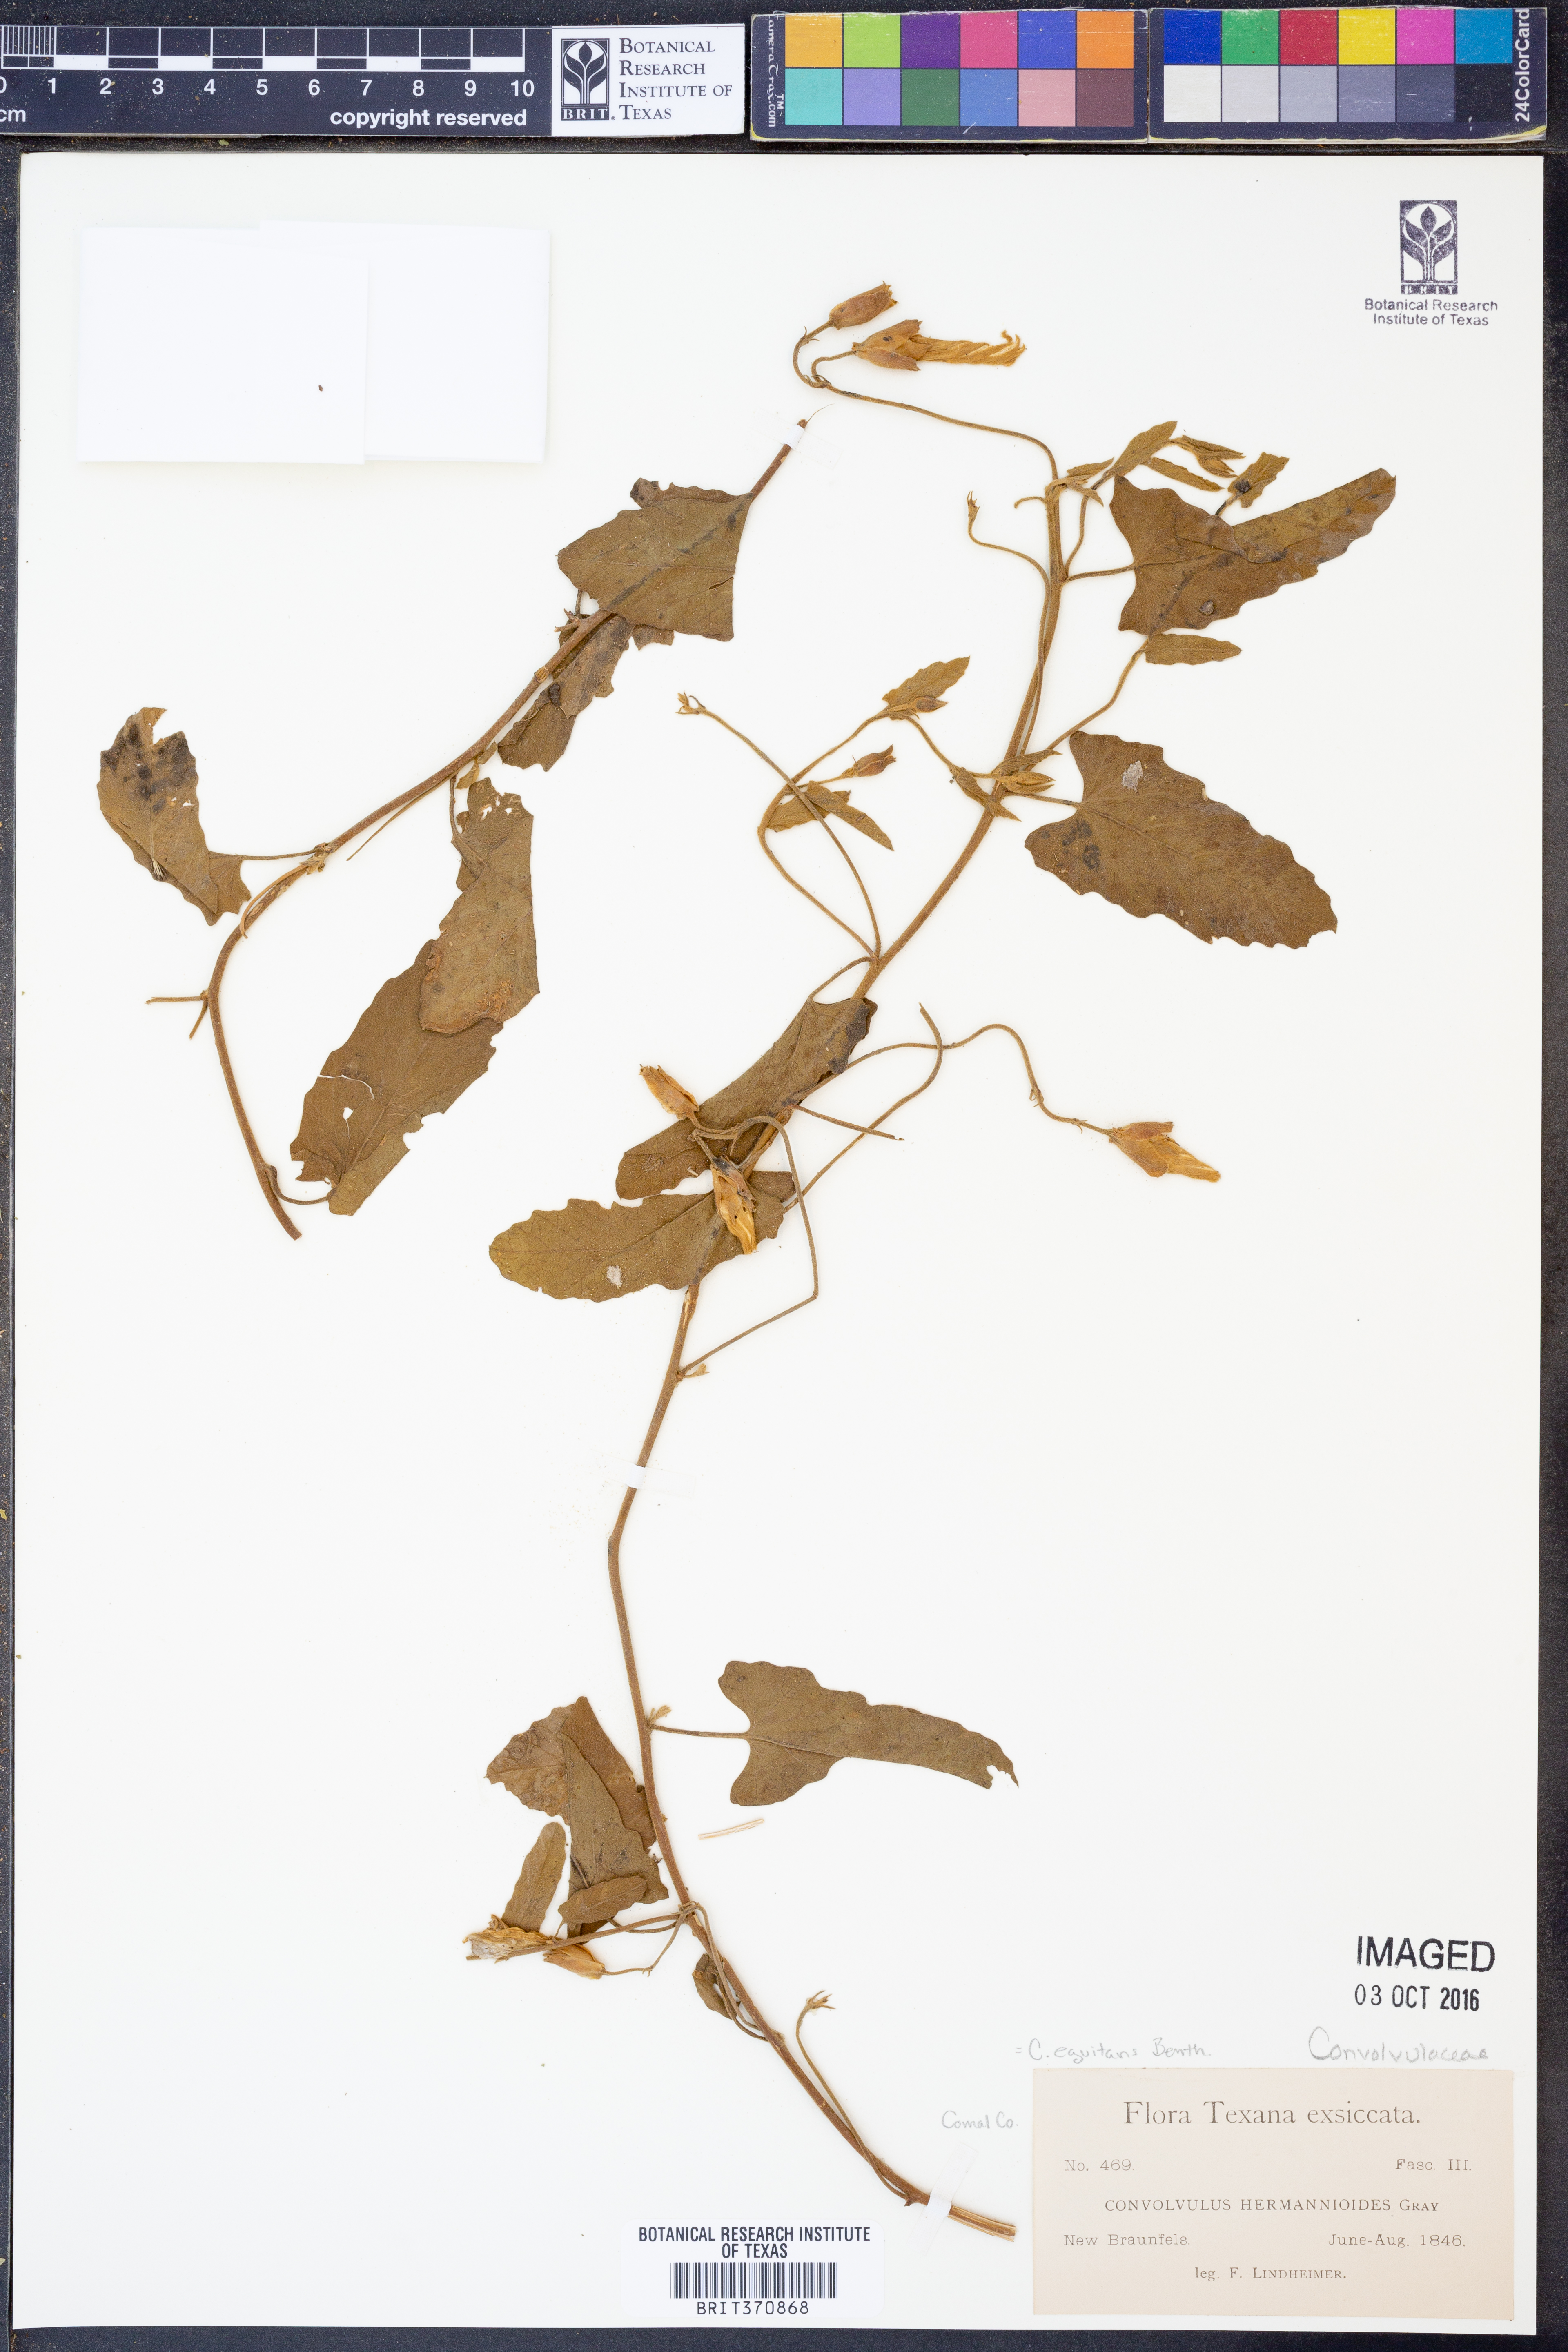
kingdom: Plantae
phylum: Tracheophyta
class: Magnoliopsida
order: Solanales
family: Convolvulaceae
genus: Convolvulus
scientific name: Convolvulus equitans
